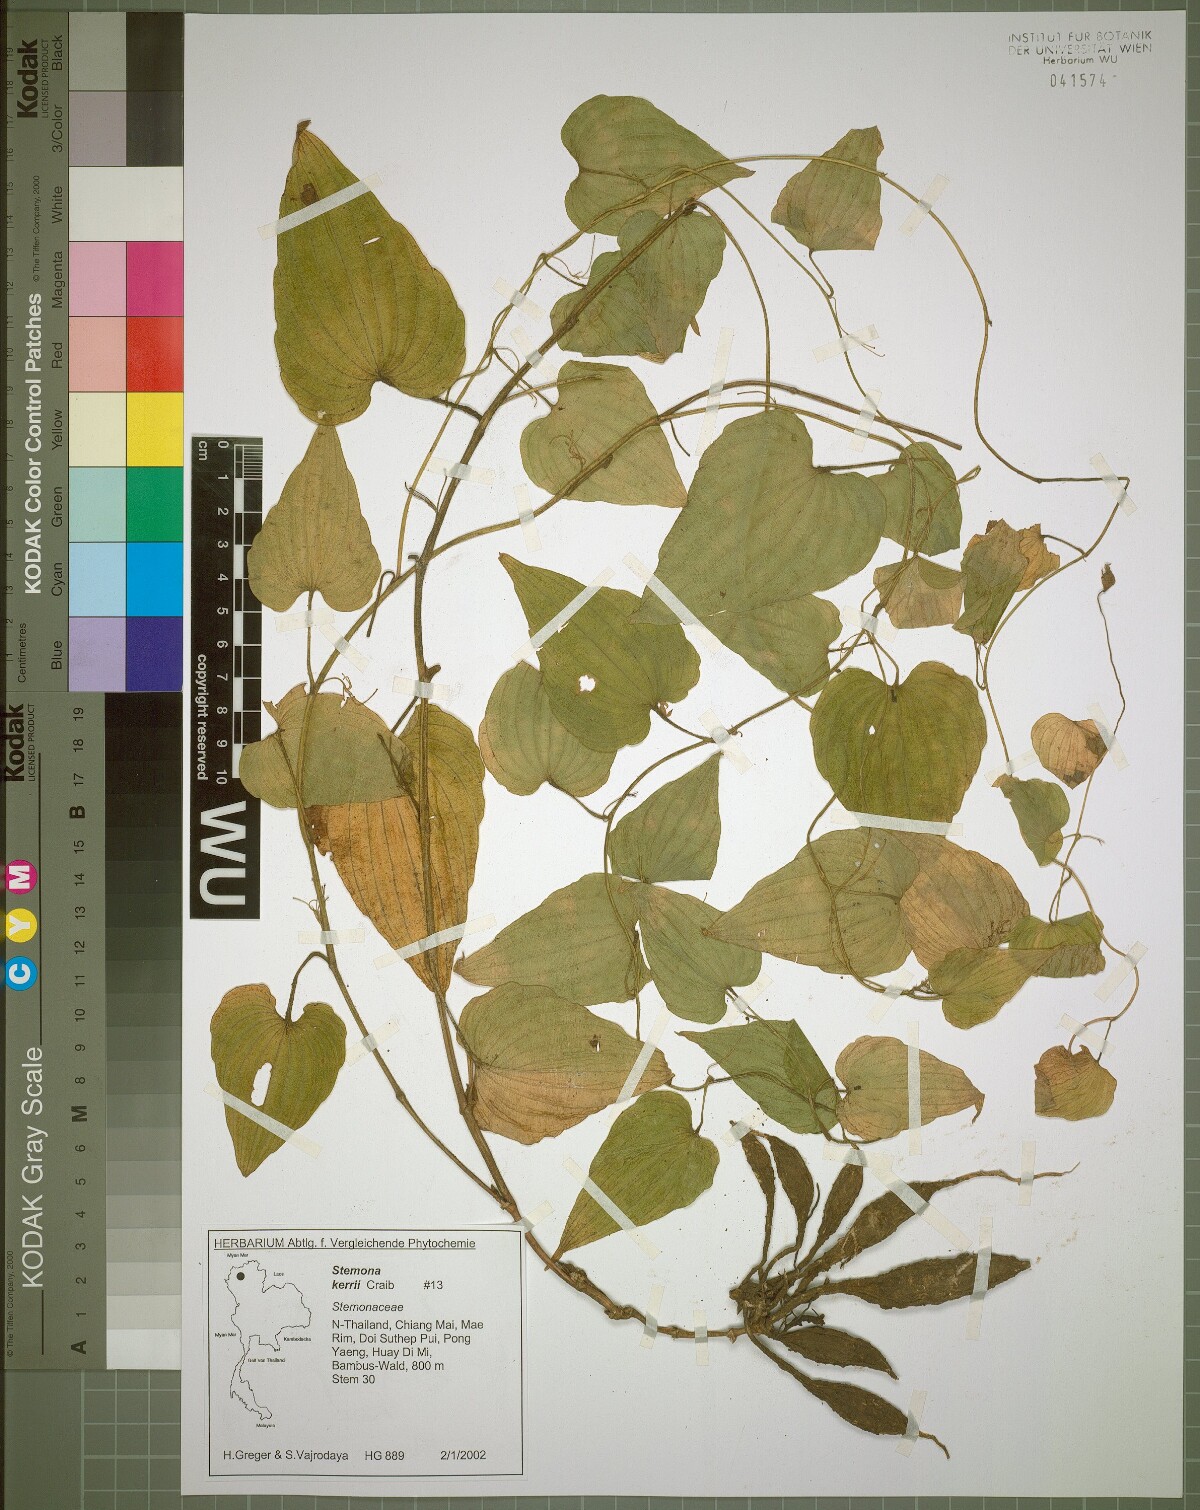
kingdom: Plantae
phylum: Tracheophyta
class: Liliopsida
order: Pandanales
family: Stemonaceae
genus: Stemona
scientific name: Stemona kerrii
